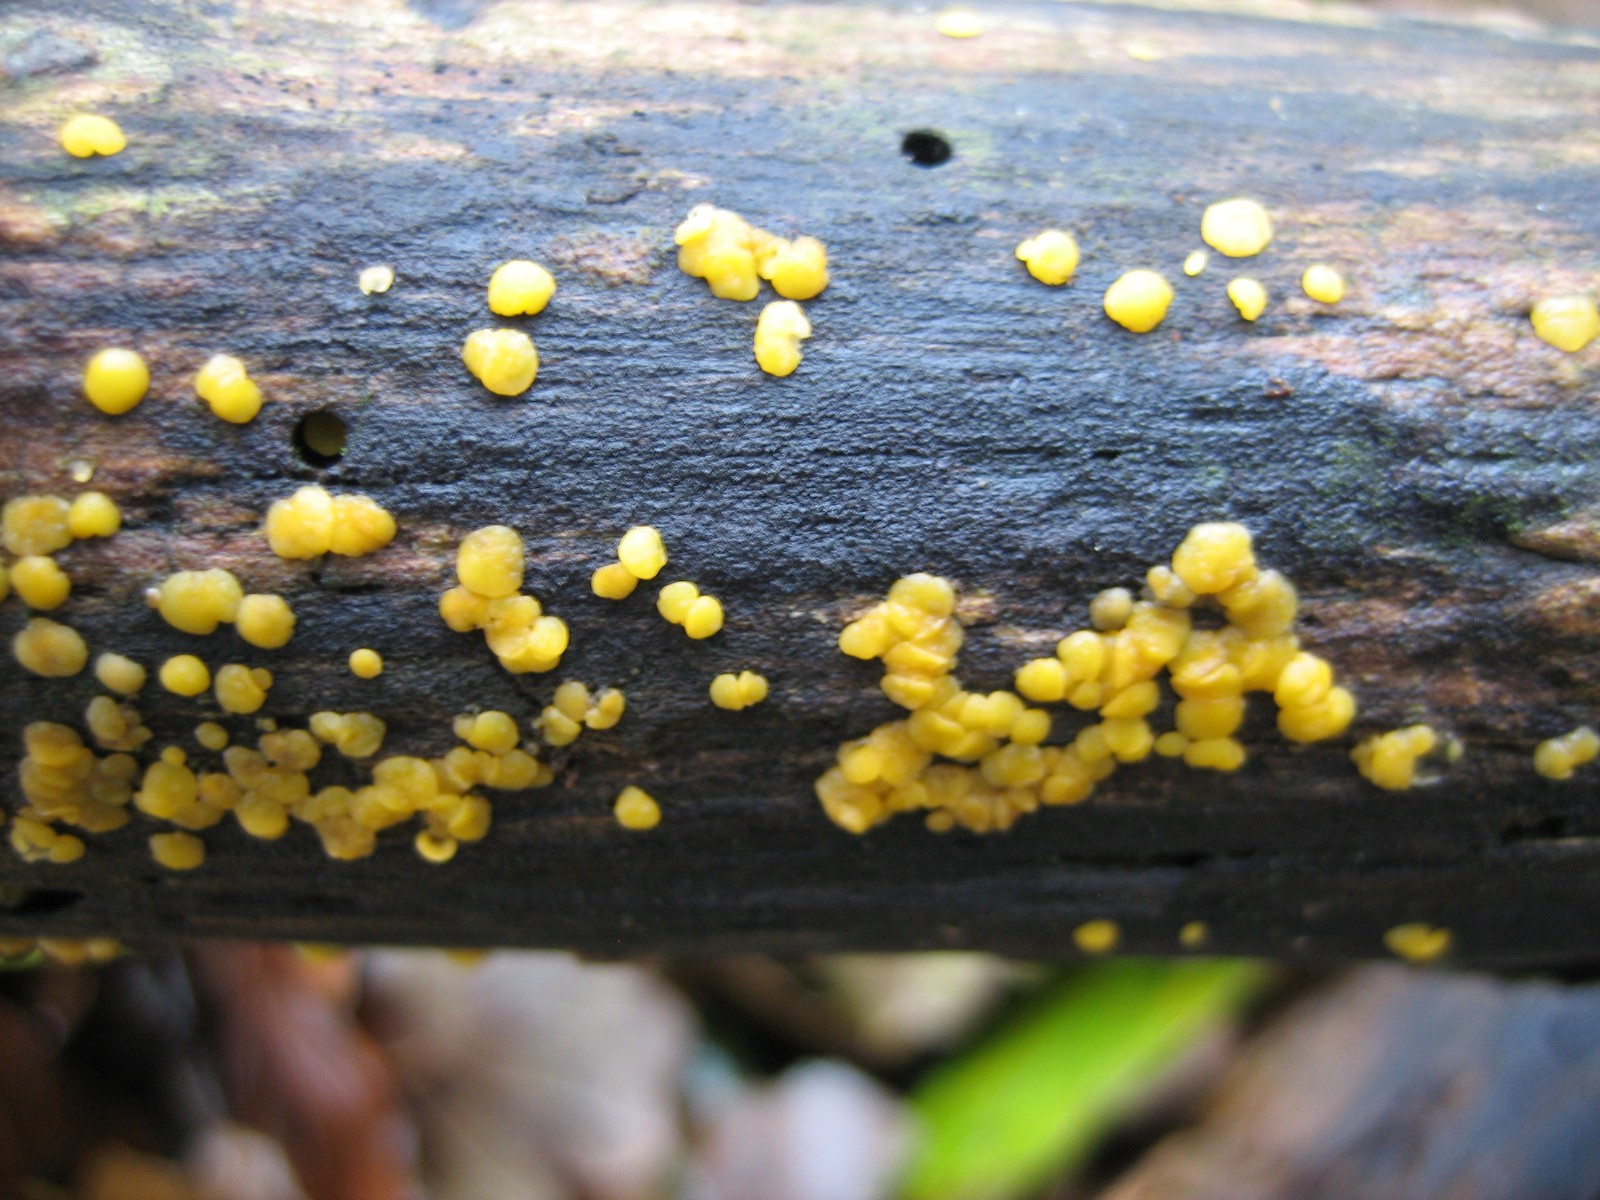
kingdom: Fungi
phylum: Ascomycota
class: Leotiomycetes
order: Helotiales
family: Pezizellaceae
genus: Calycina
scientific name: Calycina citrina
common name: almindelig gulskive
